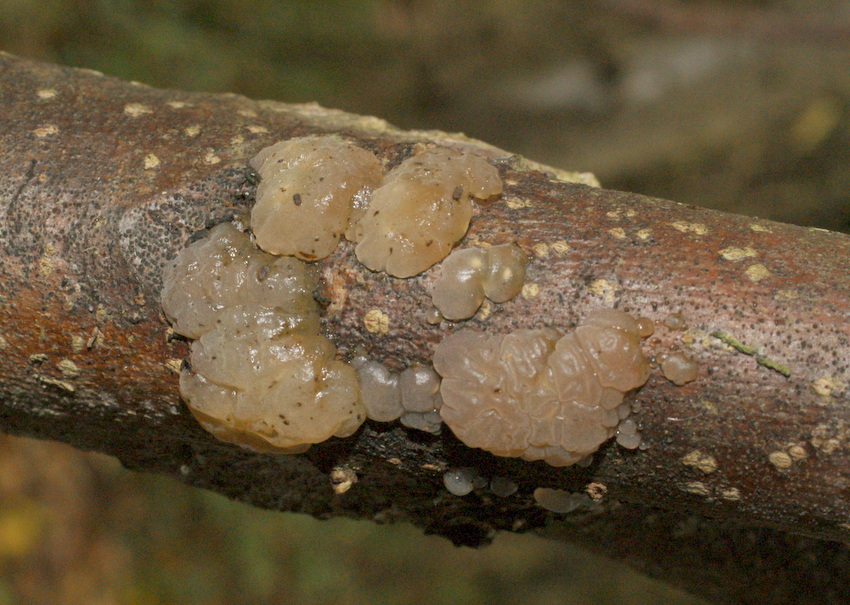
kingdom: Fungi
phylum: Basidiomycota
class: Agaricomycetes
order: Auriculariales
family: Hyaloriaceae
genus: Myxarium
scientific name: Myxarium nucleatum
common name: klar bævretop
